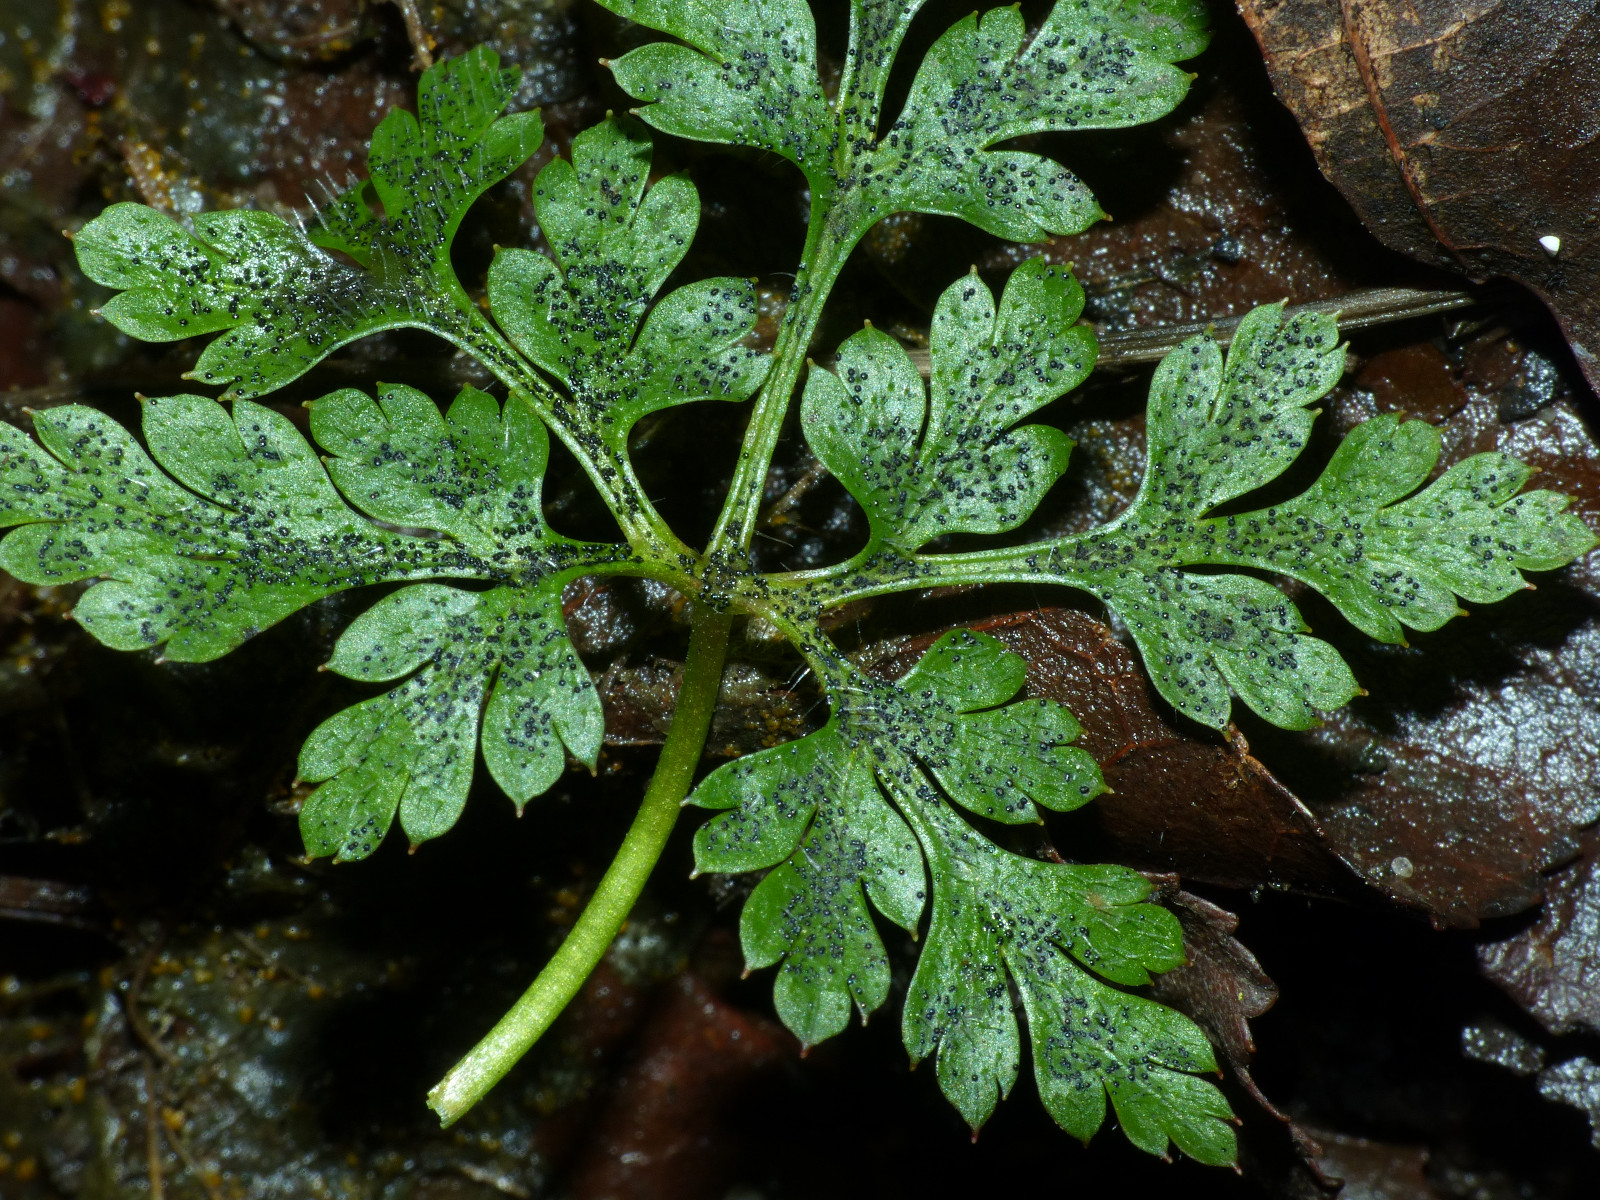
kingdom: Fungi
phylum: Ascomycota
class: Dothideomycetes
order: Venturiales
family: Venturiaceae
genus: Coleroa
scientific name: Coleroa robertiani
